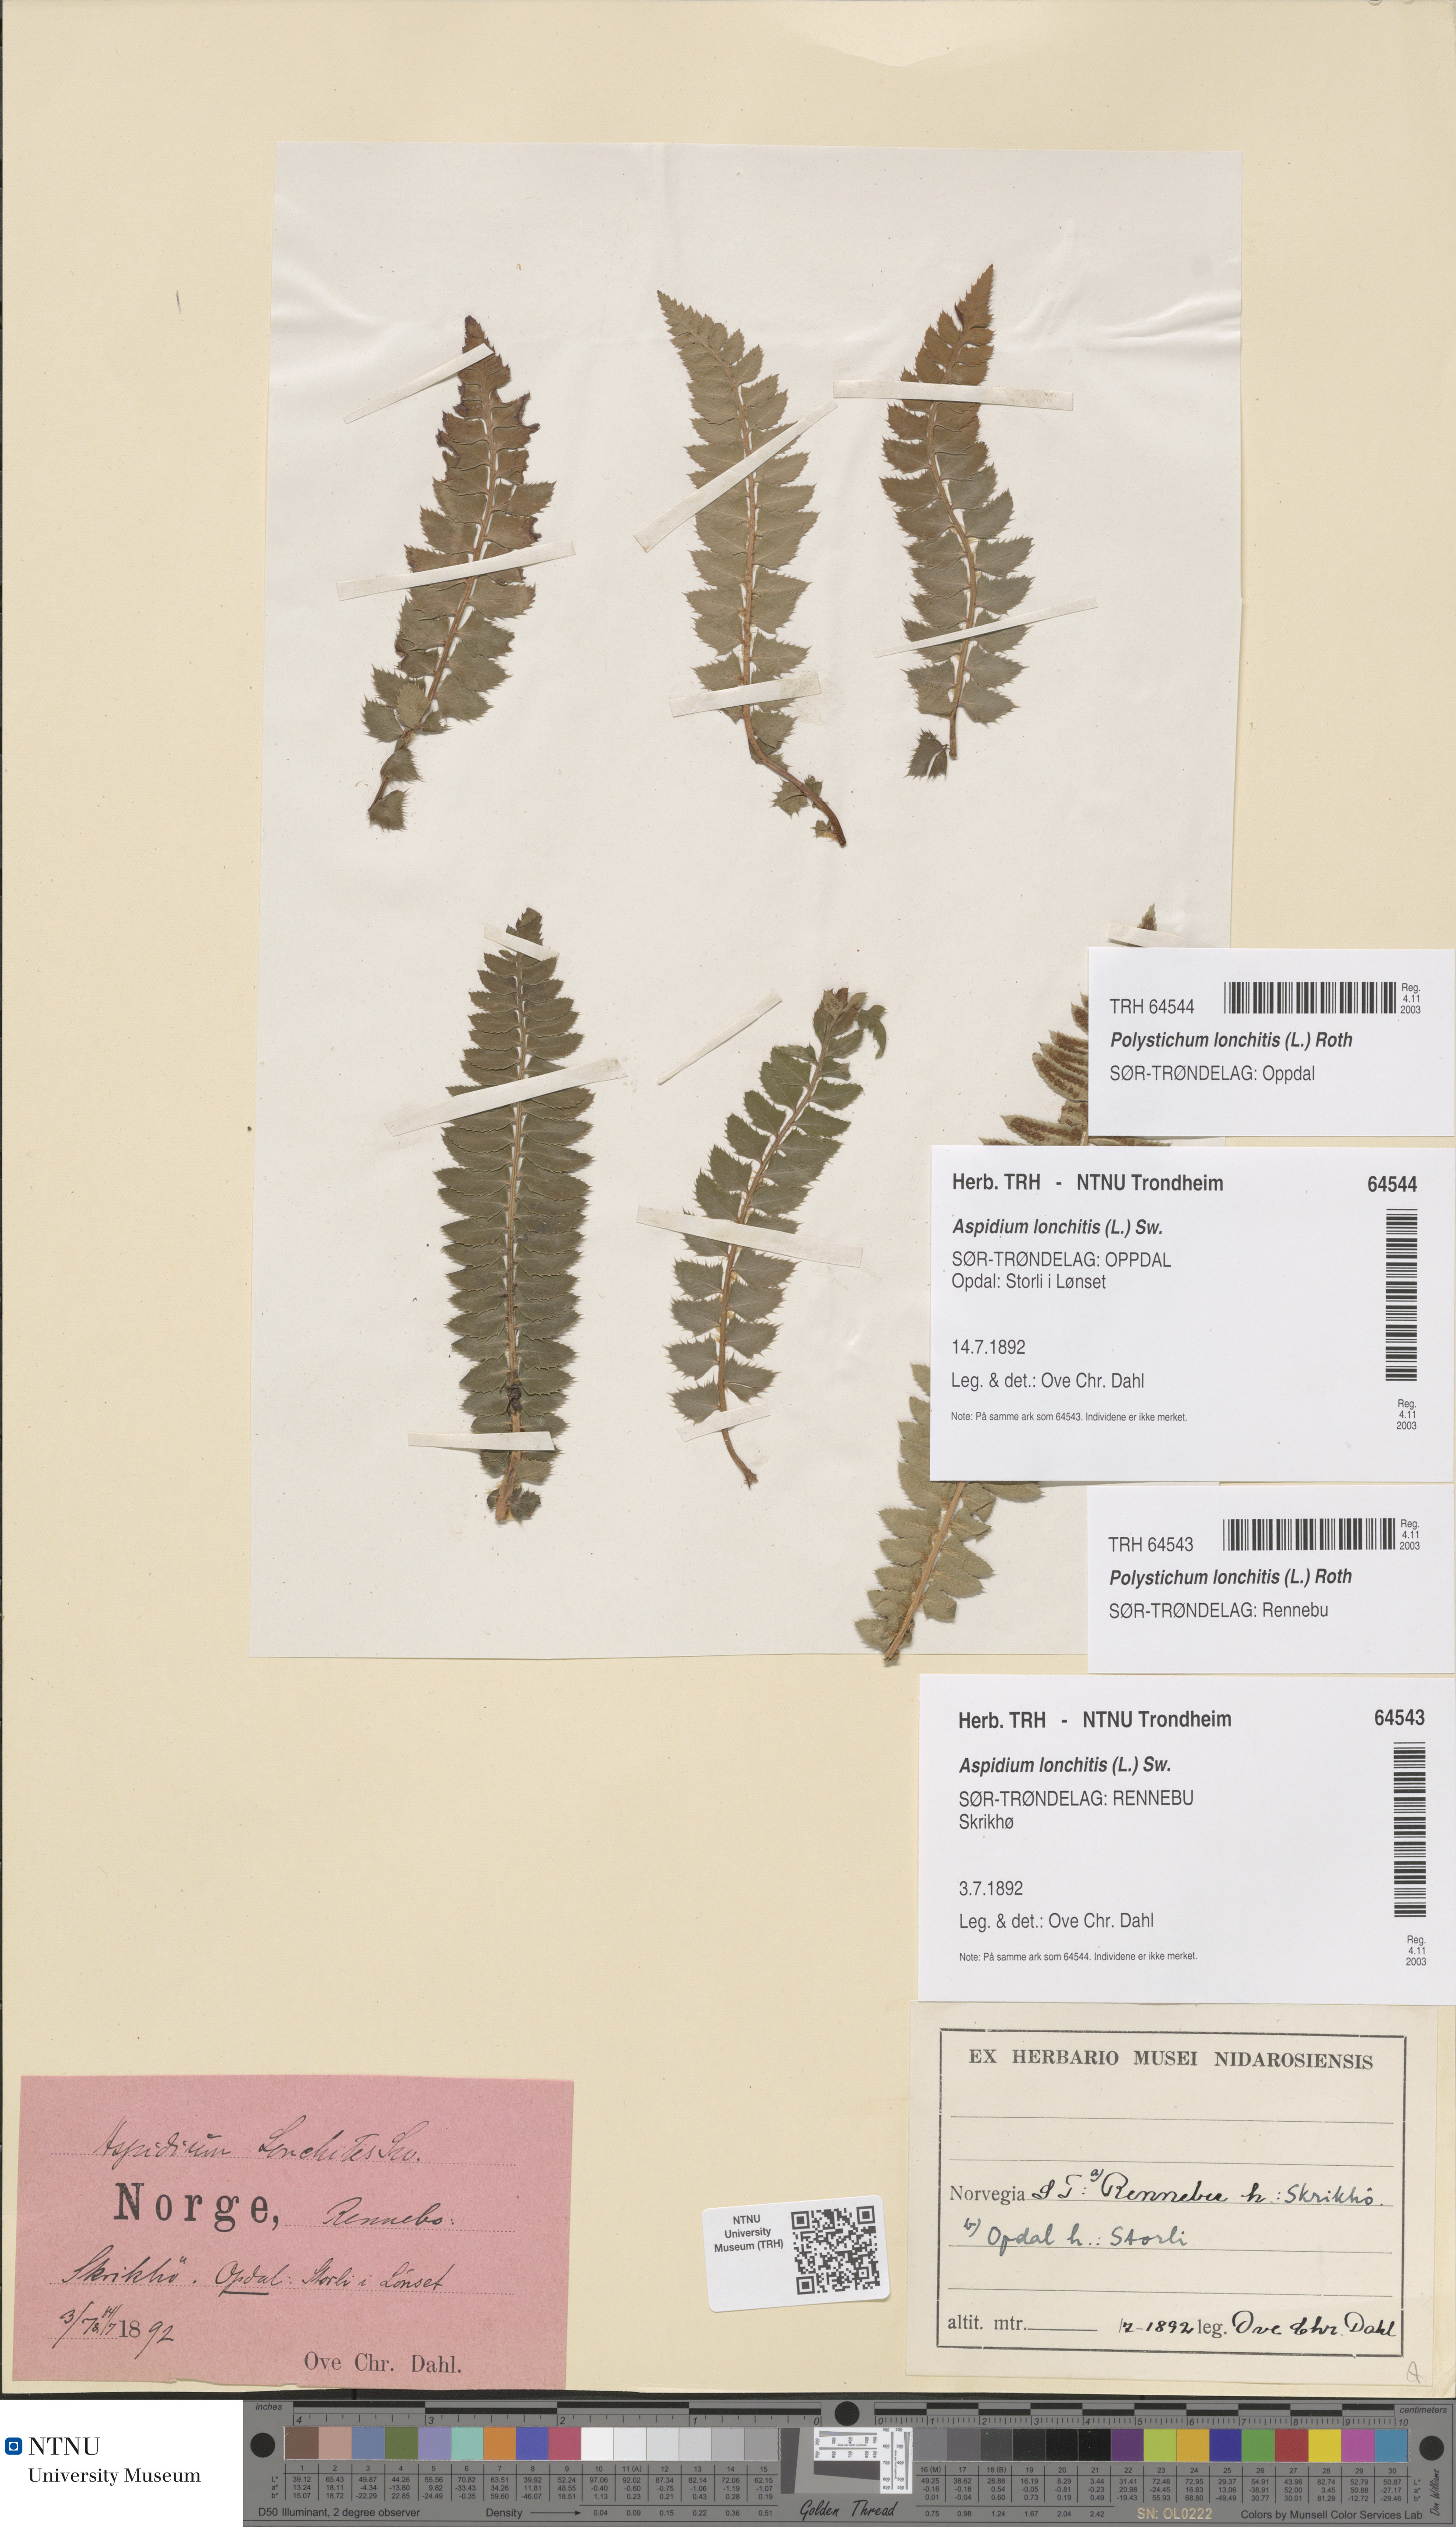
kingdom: Plantae
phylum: Tracheophyta
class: Polypodiopsida
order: Polypodiales
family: Dryopteridaceae
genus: Polystichum
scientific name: Polystichum lonchitis
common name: Holly fern
